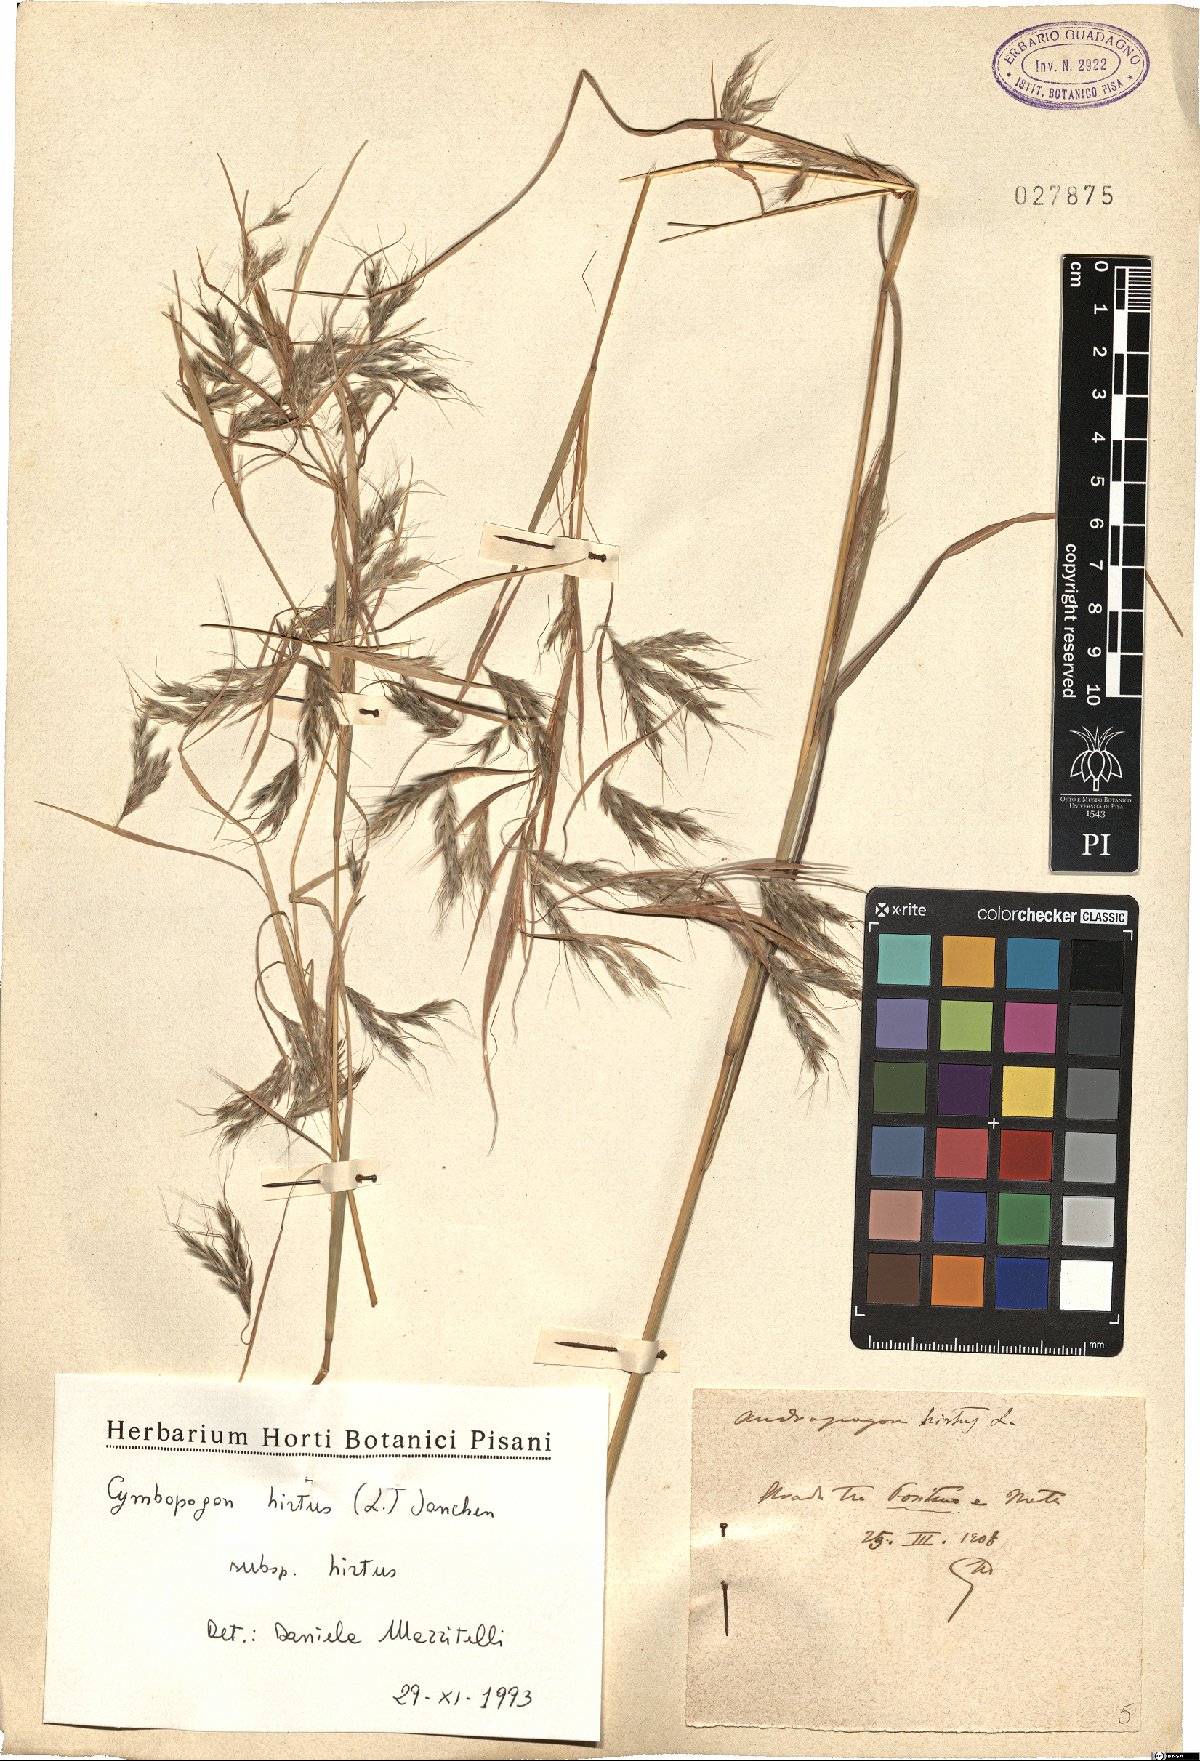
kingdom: Plantae
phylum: Tracheophyta
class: Liliopsida
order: Poales
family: Poaceae
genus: Cymbopogon
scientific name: Cymbopogon hirtus
